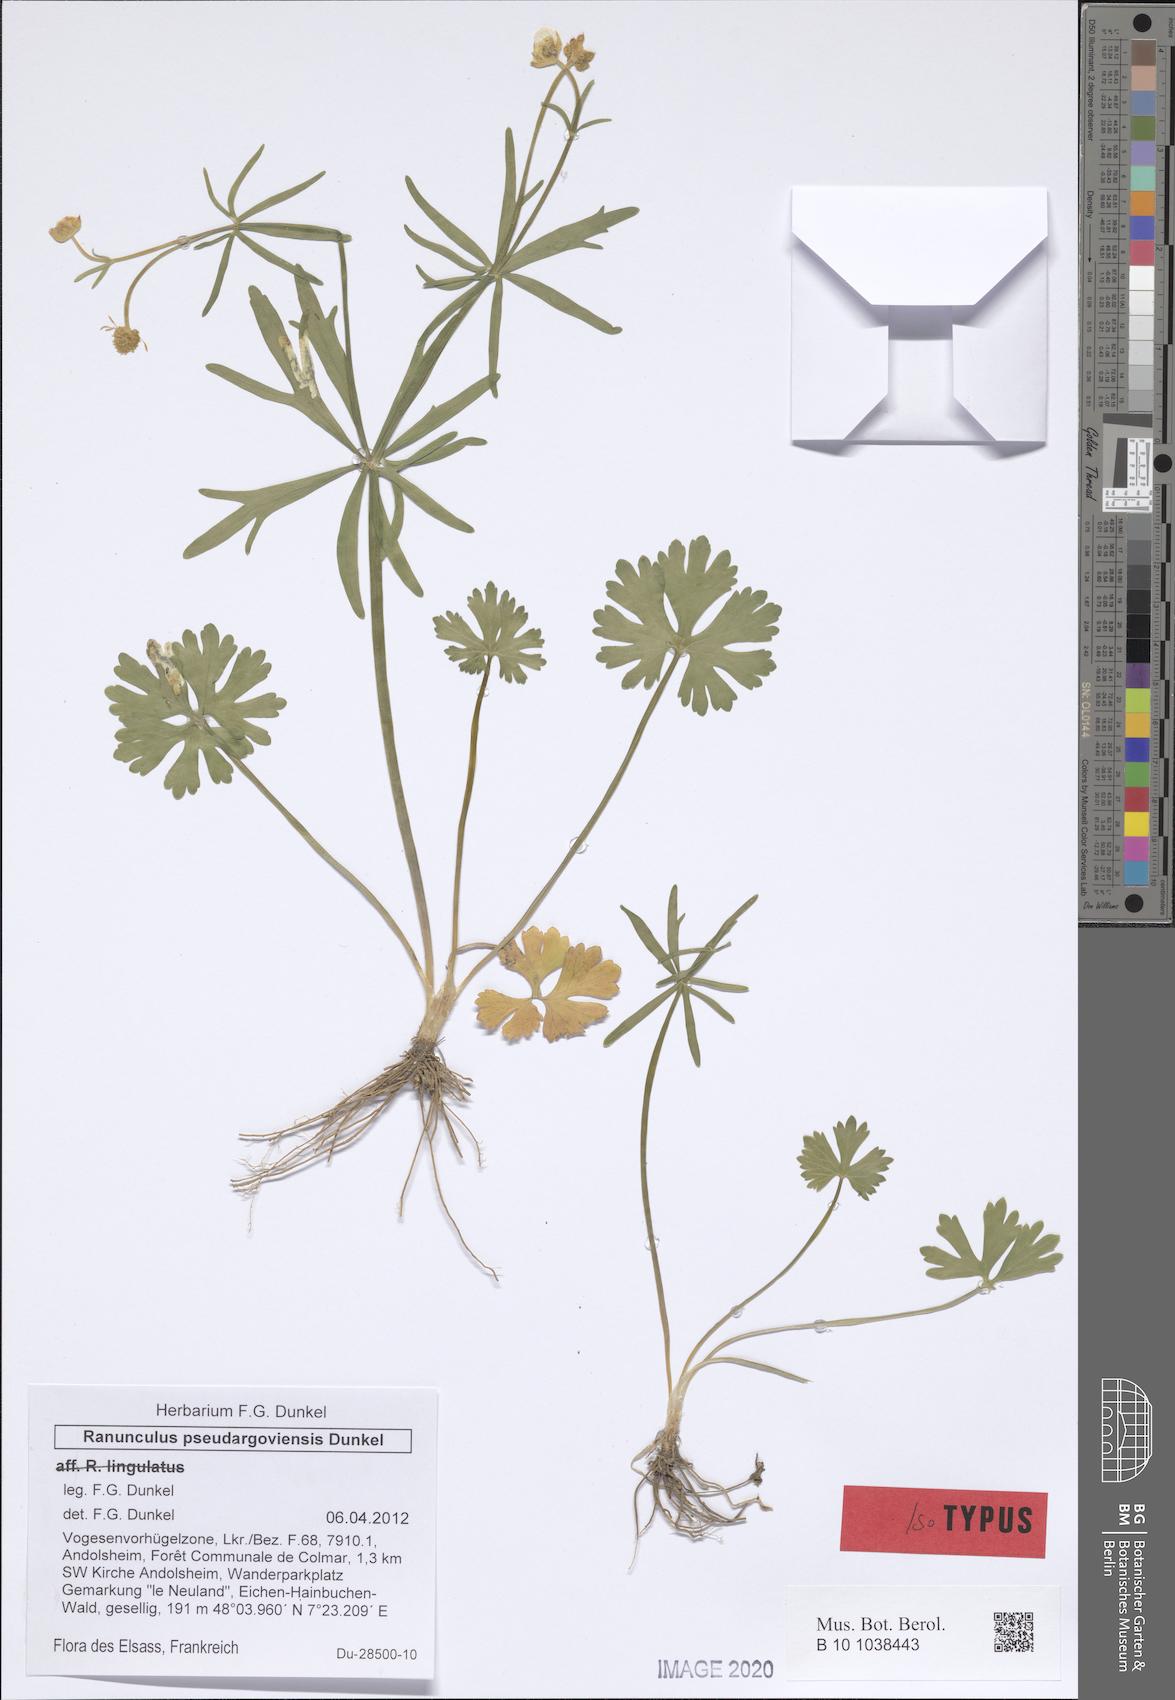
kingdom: Plantae
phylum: Tracheophyta
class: Magnoliopsida
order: Ranunculales
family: Ranunculaceae
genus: Ranunculus
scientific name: Ranunculus pseudargoviensis
